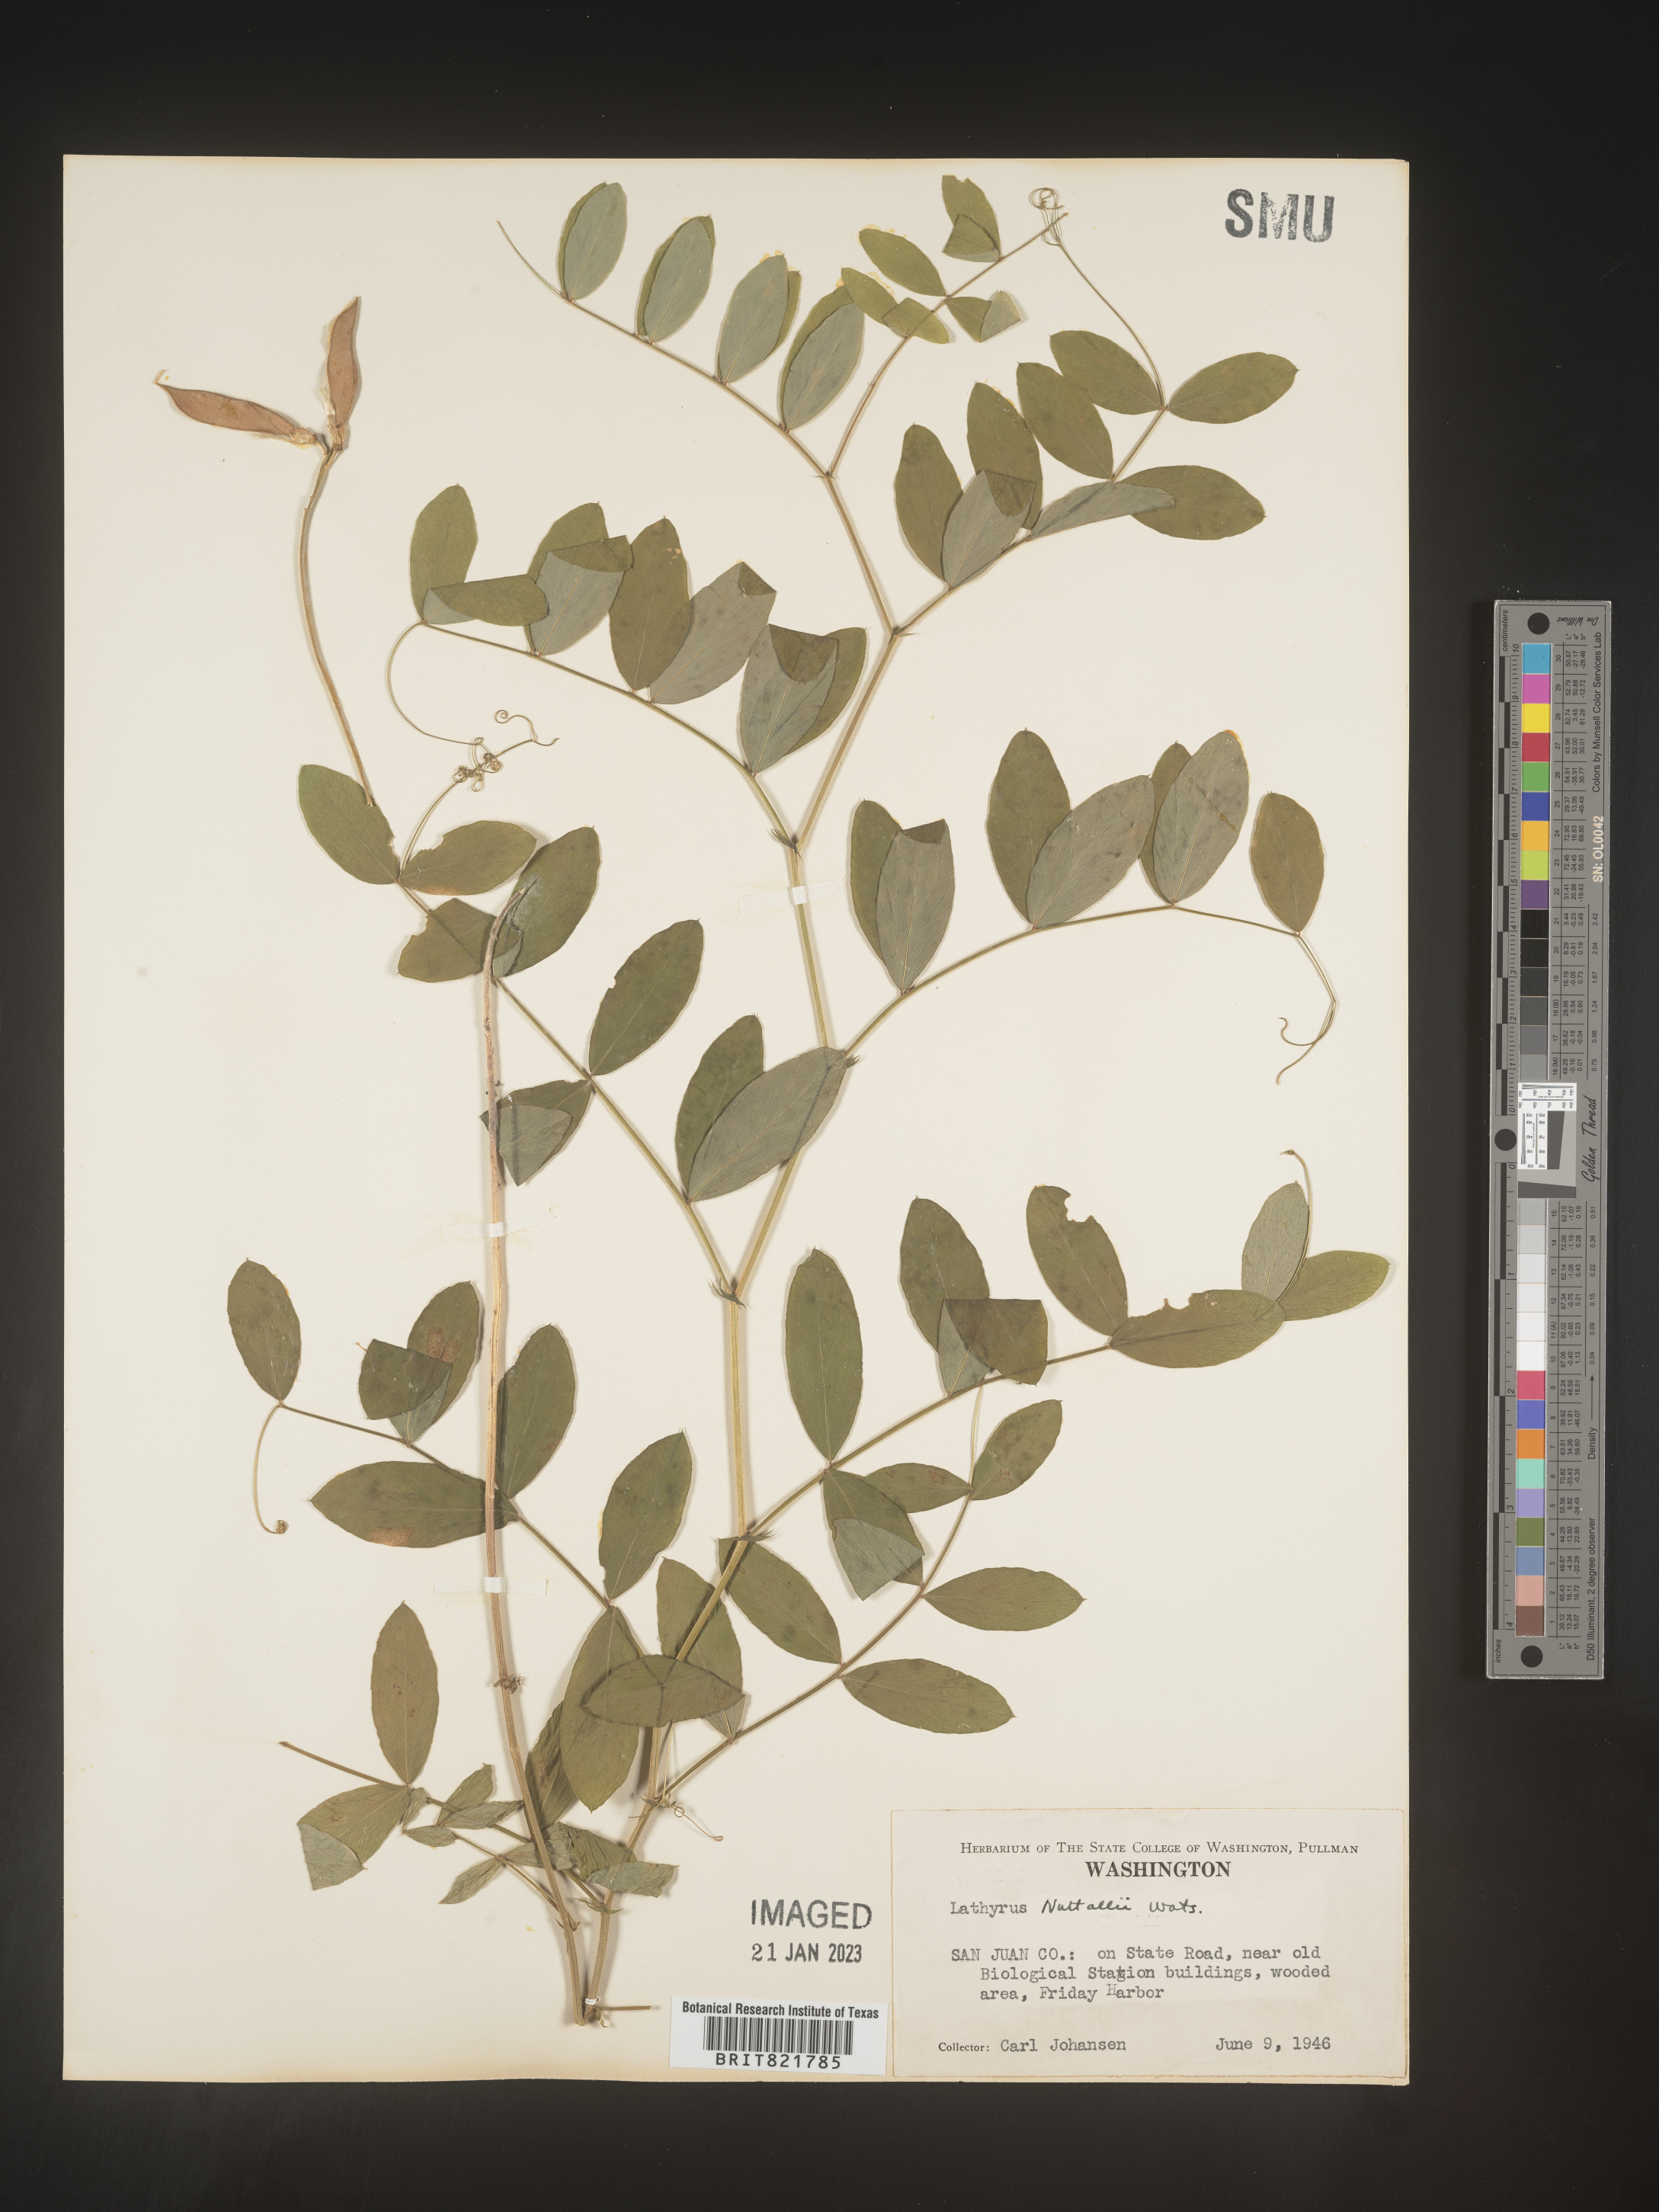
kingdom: Plantae
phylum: Tracheophyta
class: Magnoliopsida
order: Fabales
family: Fabaceae
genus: Lathyrus
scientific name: Lathyrus
